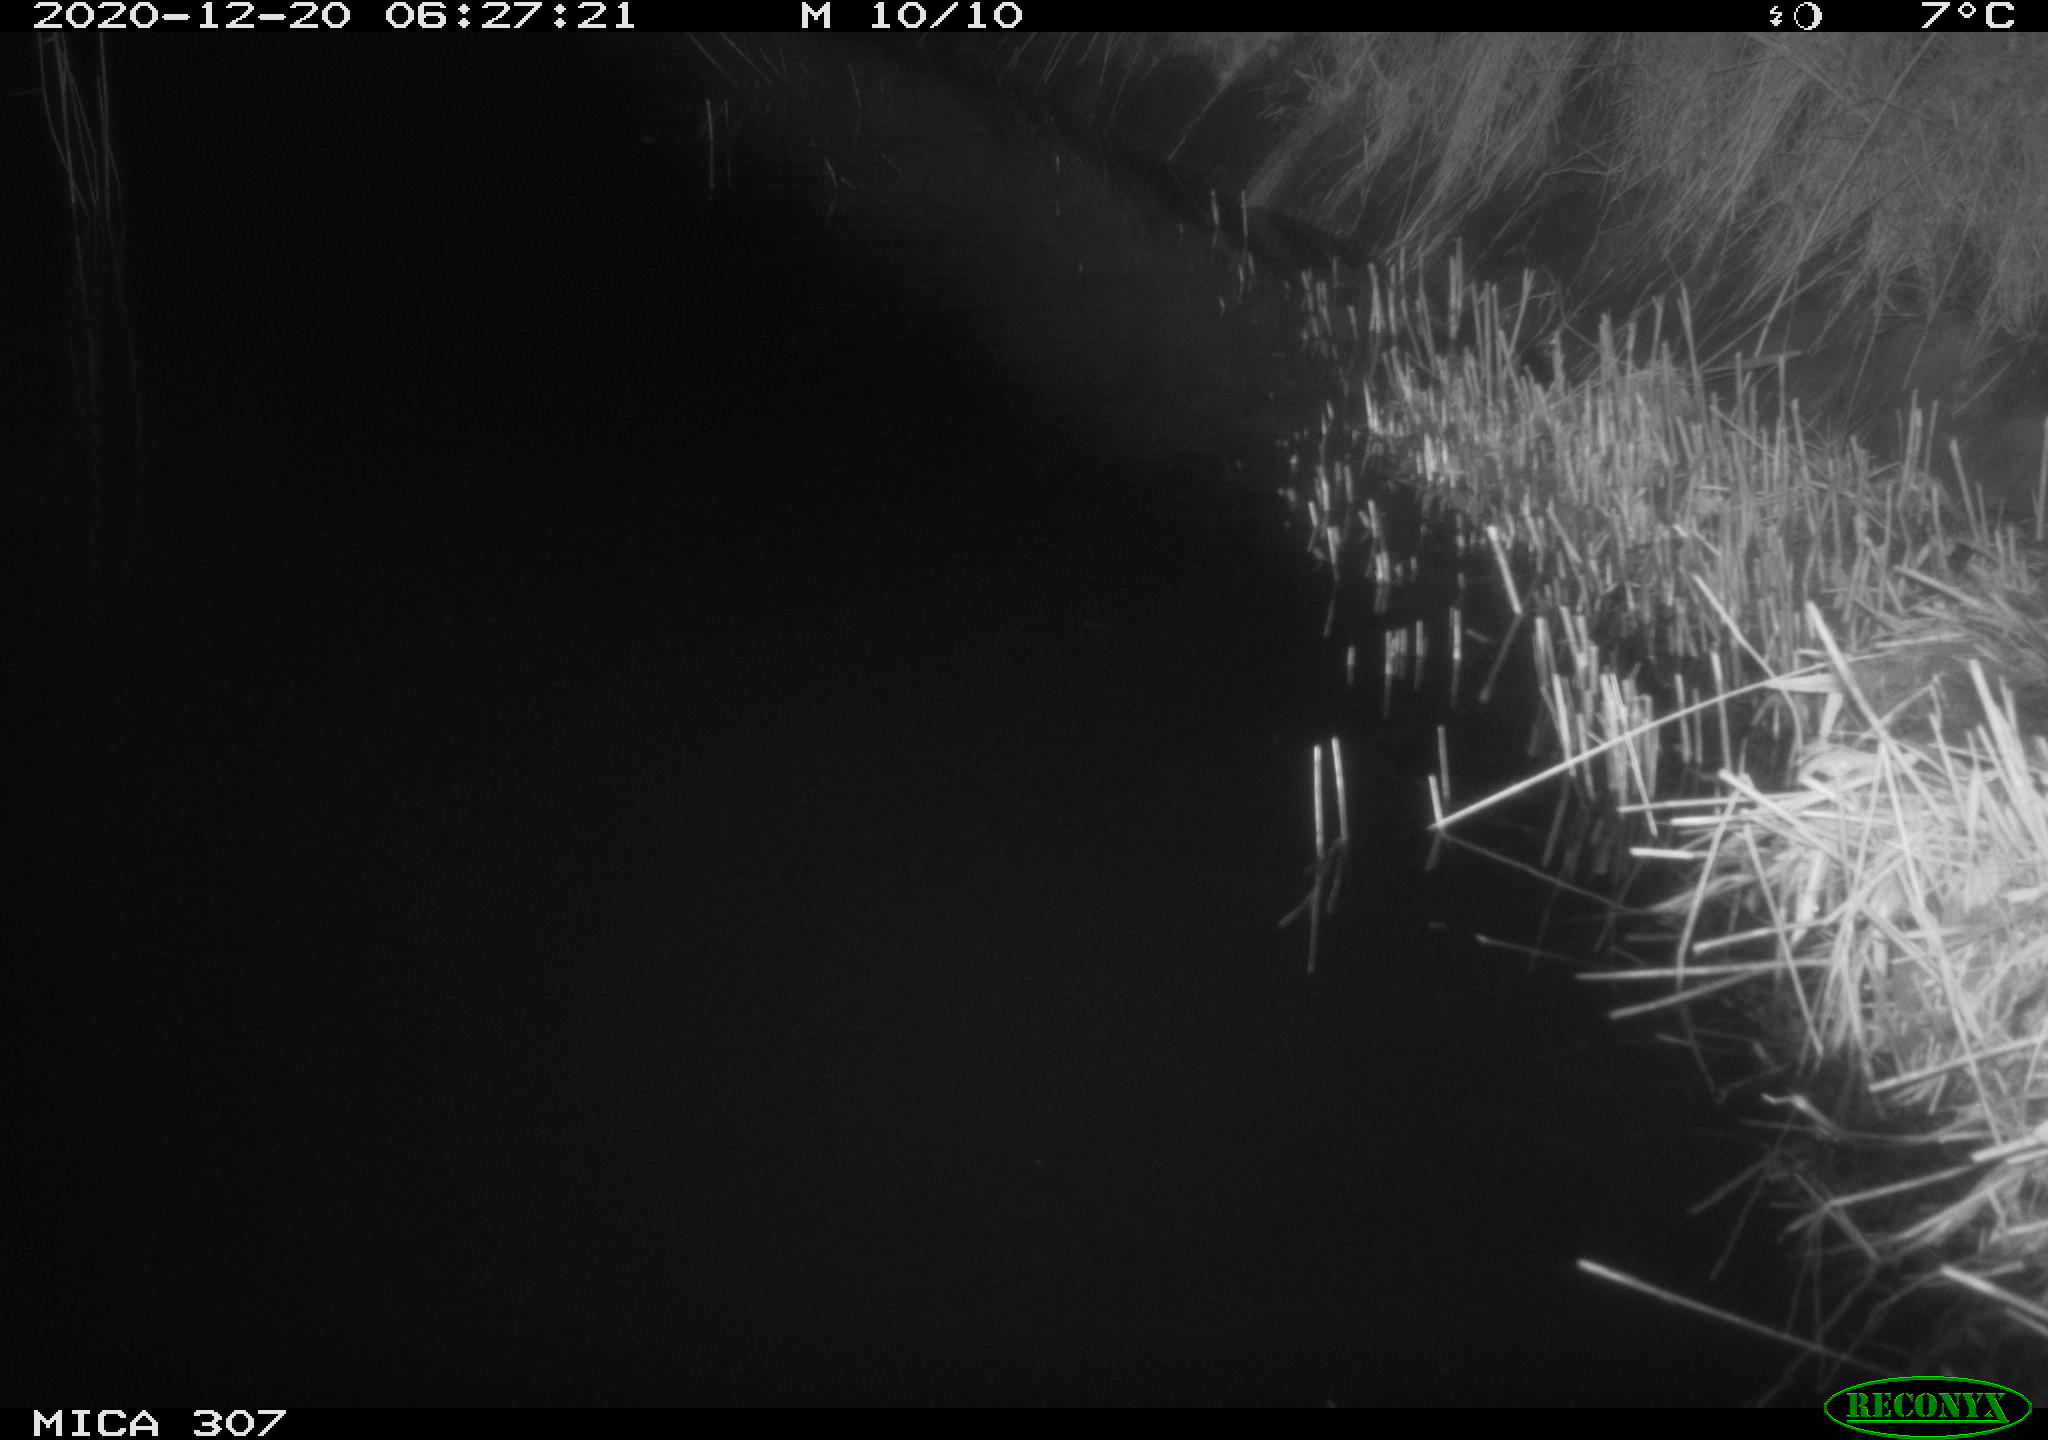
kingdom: Animalia
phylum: Chordata
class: Mammalia
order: Rodentia
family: Muridae
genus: Rattus
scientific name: Rattus norvegicus
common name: Brown rat
